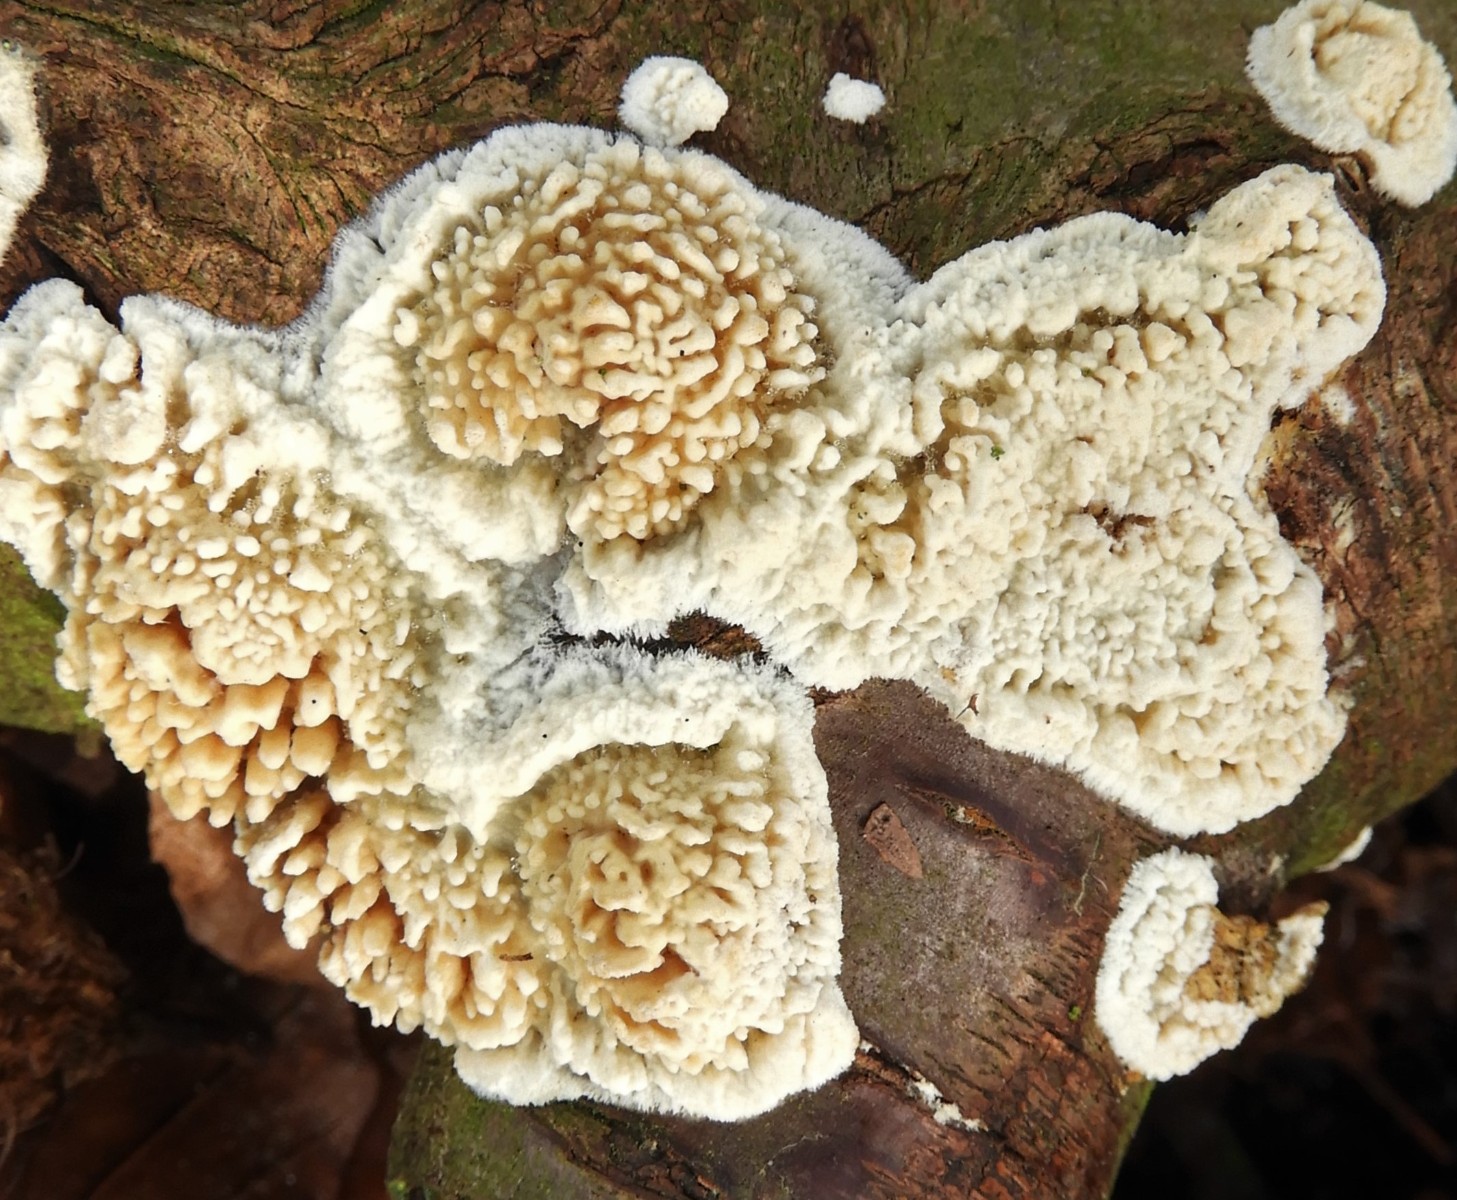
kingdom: Fungi
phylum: Basidiomycota
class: Agaricomycetes
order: Hymenochaetales
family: Schizoporaceae
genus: Xylodon
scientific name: Xylodon radula
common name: grovtandet kalkskind
